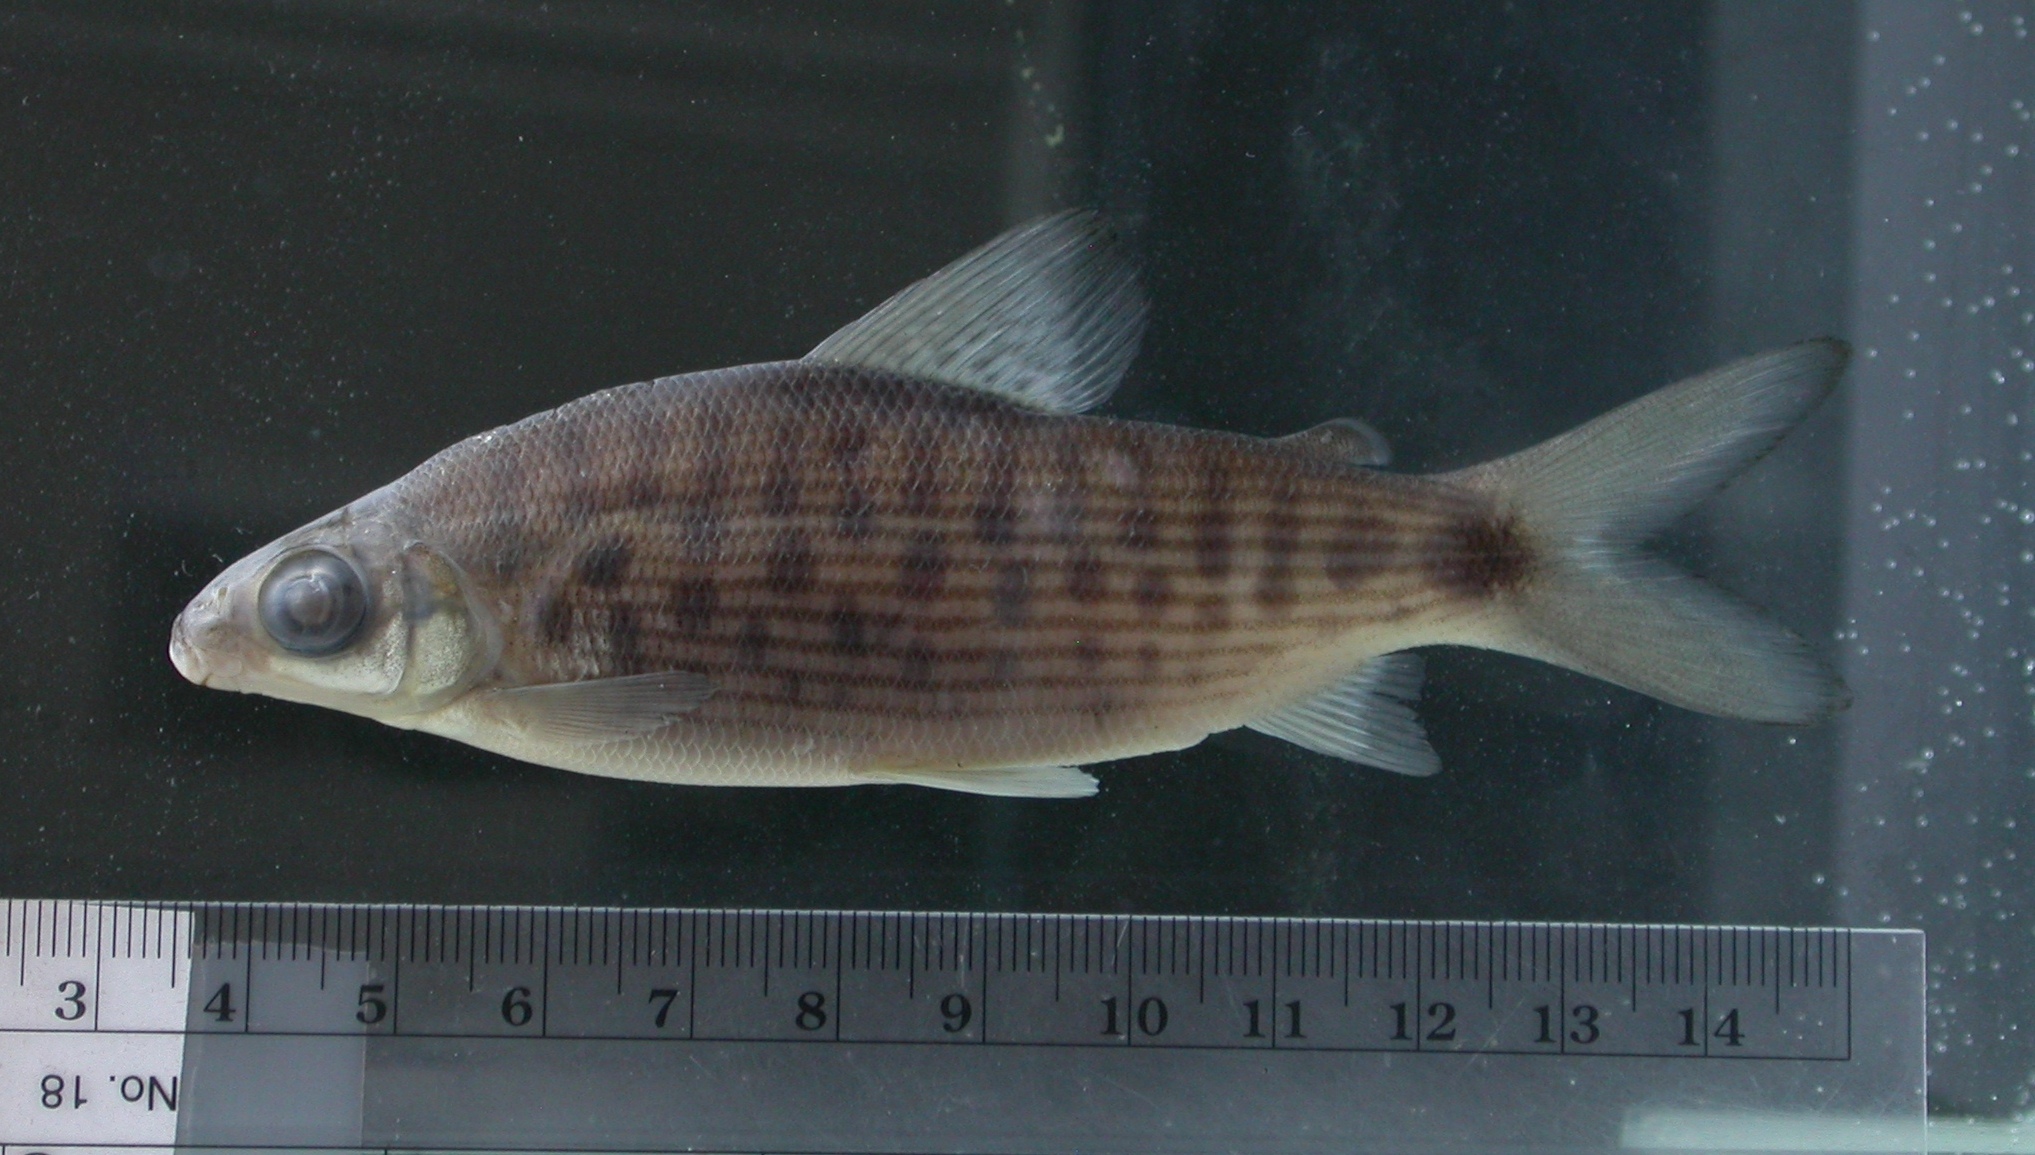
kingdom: Animalia
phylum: Chordata
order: Characiformes
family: Distichodontidae
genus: Distichodus
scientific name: Distichodus maculatus
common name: Spotted citharinid
